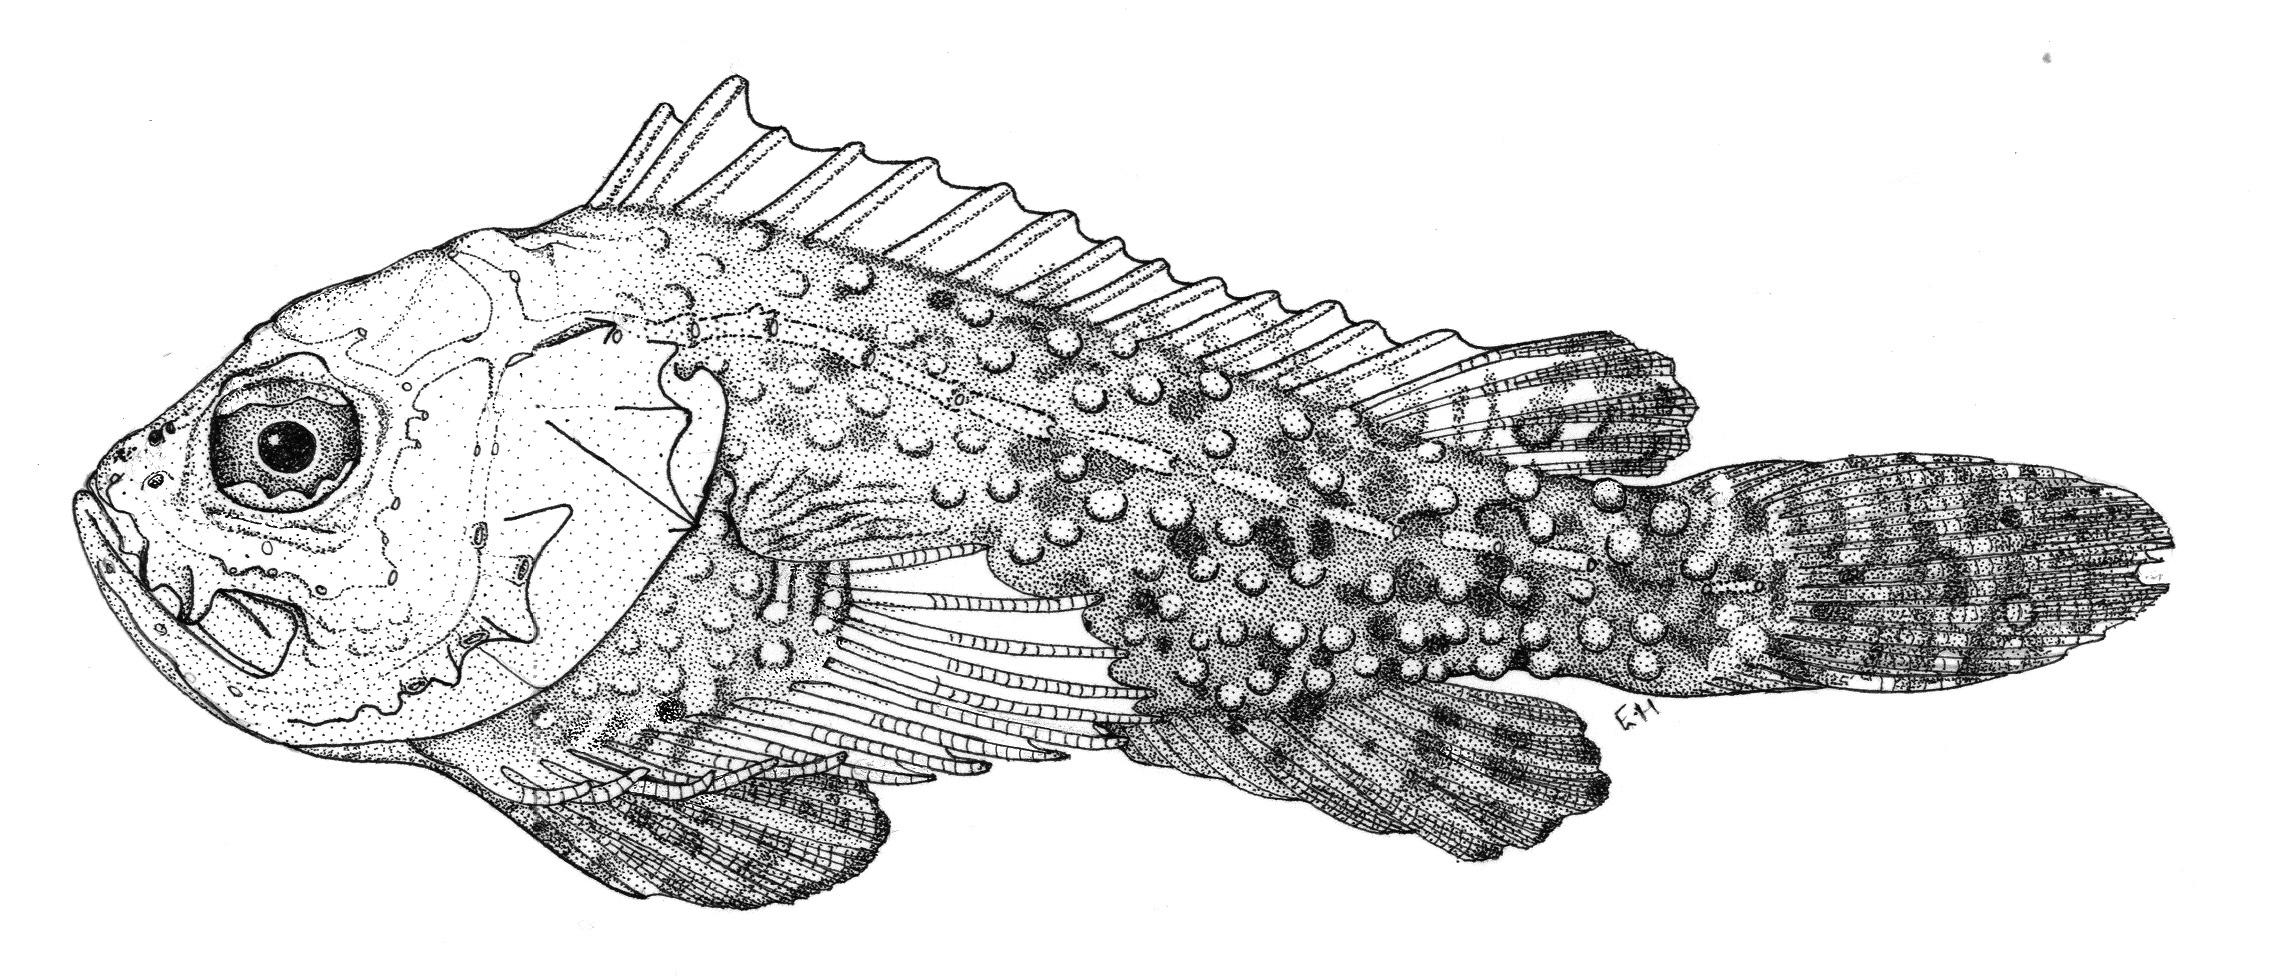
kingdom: Animalia
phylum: Chordata
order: Scorpaeniformes
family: Synanceiidae
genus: Synanceia
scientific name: Synanceia nana
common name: Dwarf scorpionfish
